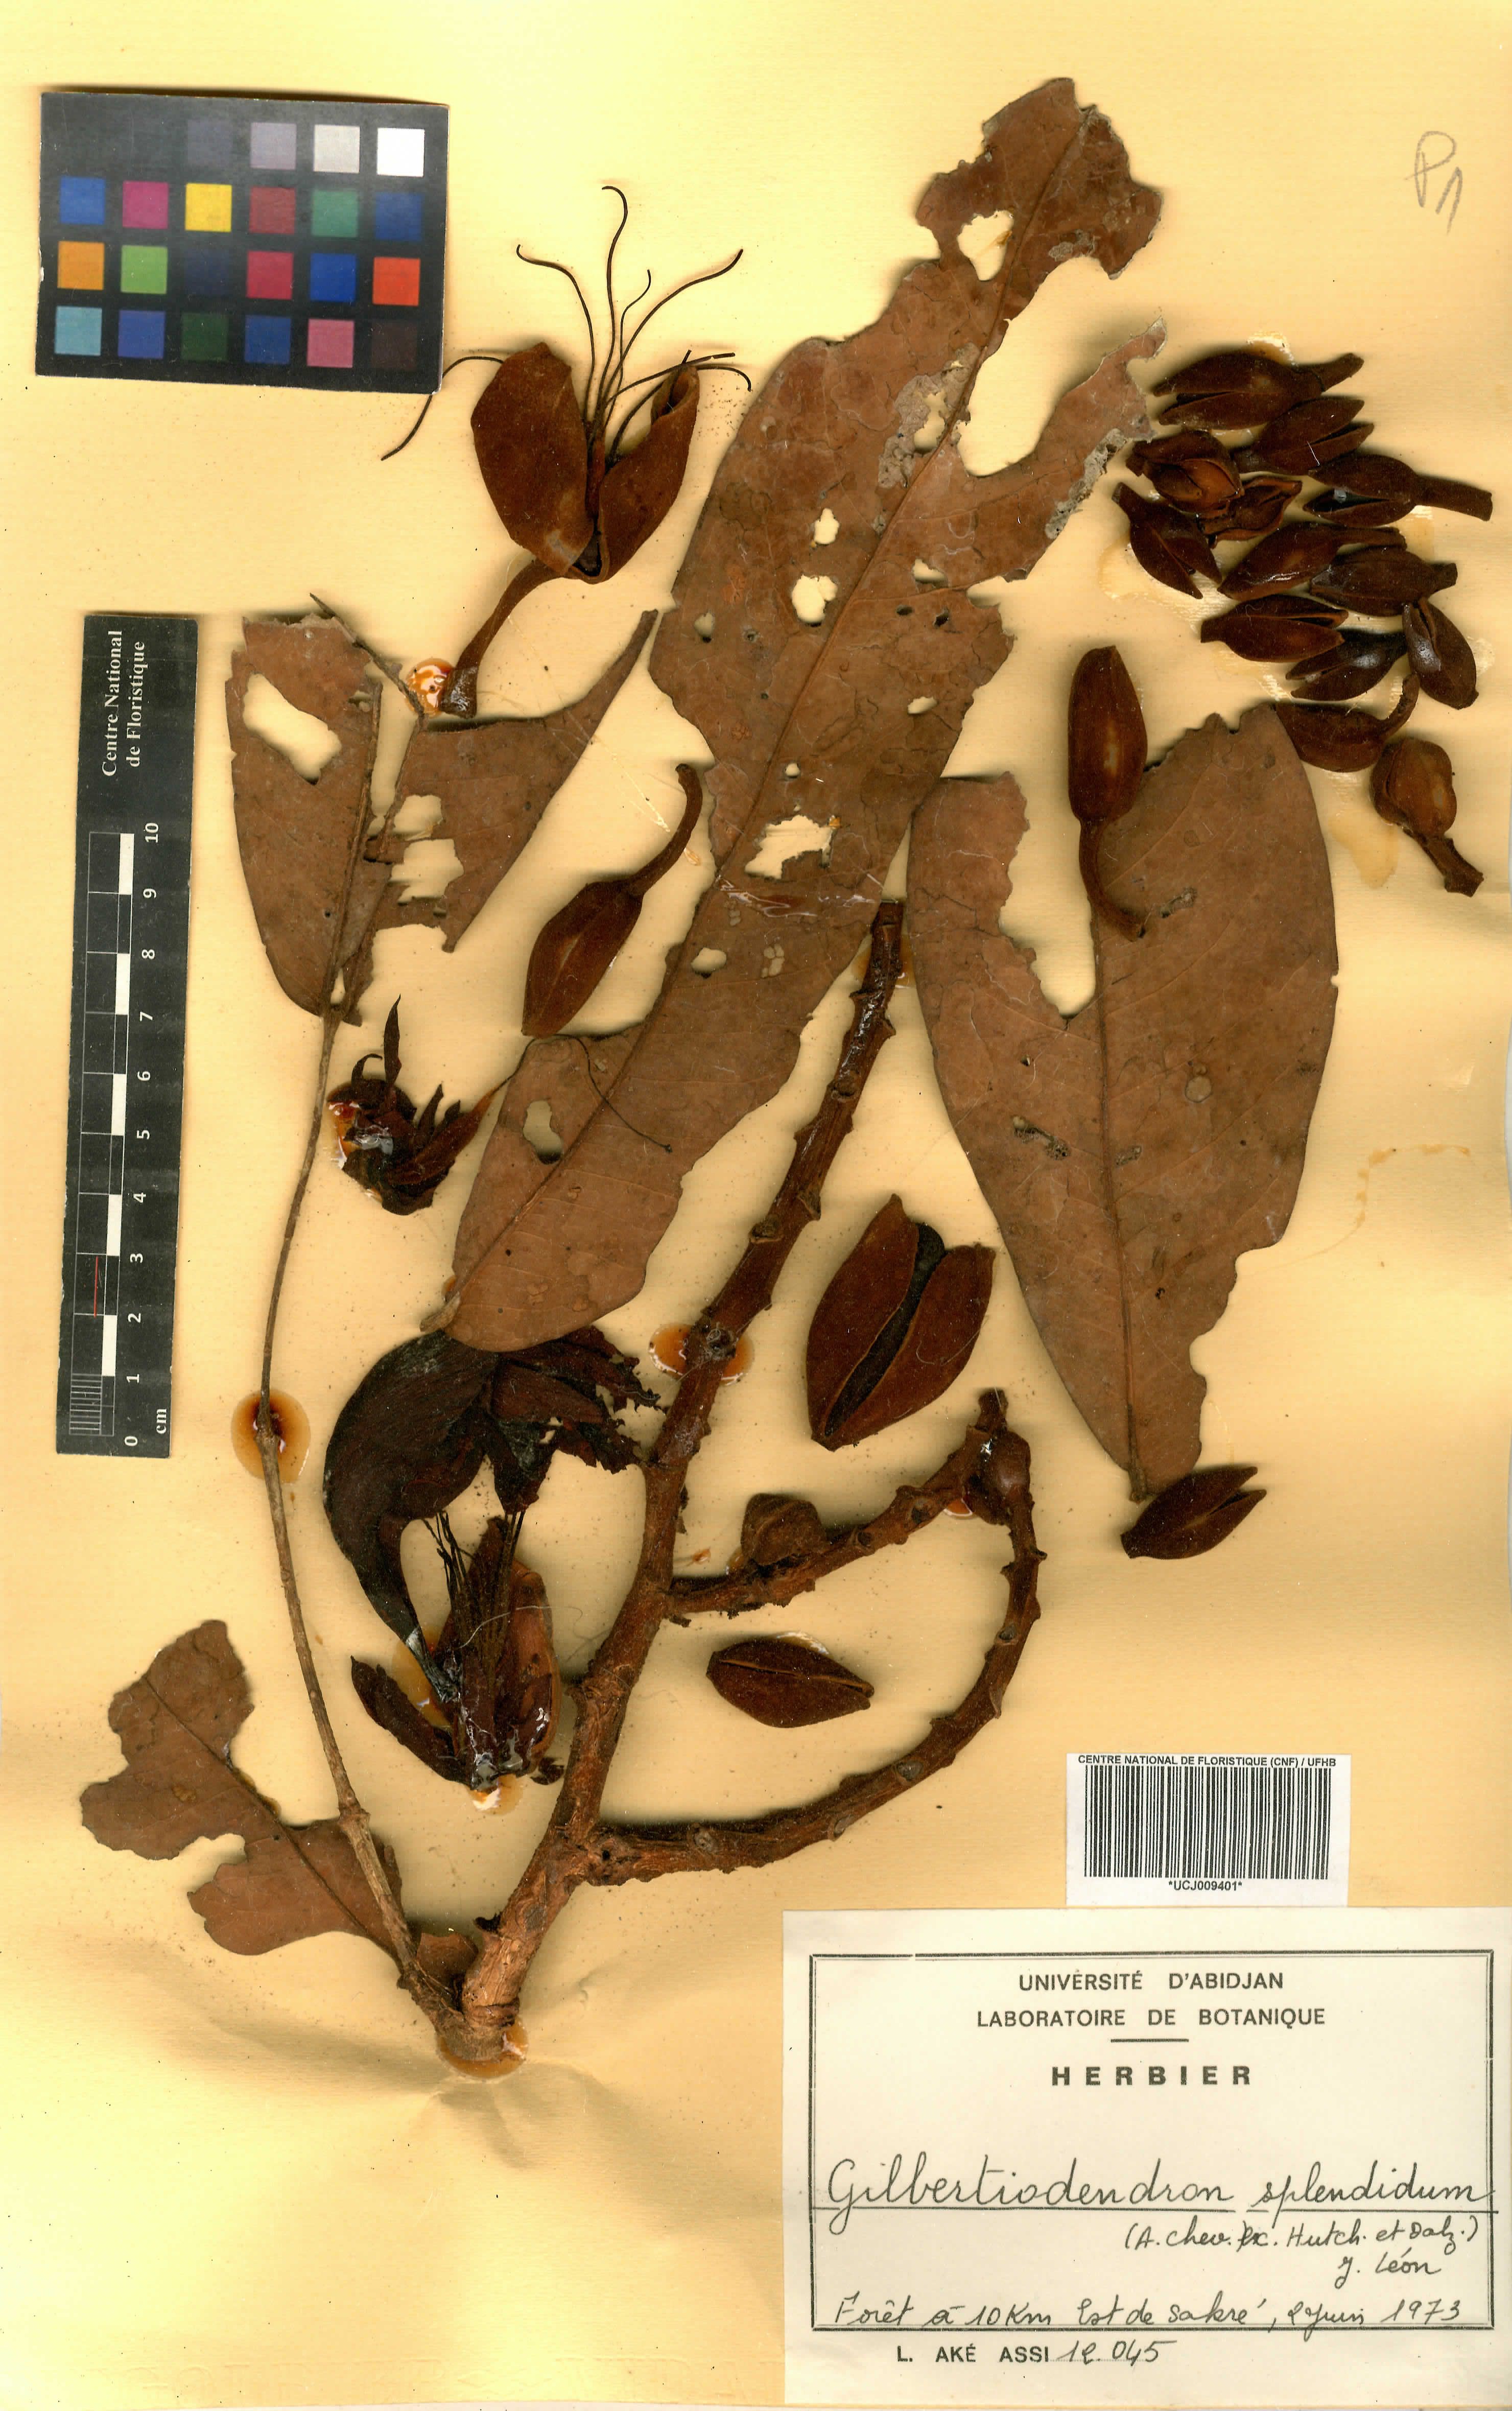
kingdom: Plantae
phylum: Tracheophyta
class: Magnoliopsida
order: Fabales
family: Fabaceae
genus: Gilbertiodendron
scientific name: Gilbertiodendron splendidum
